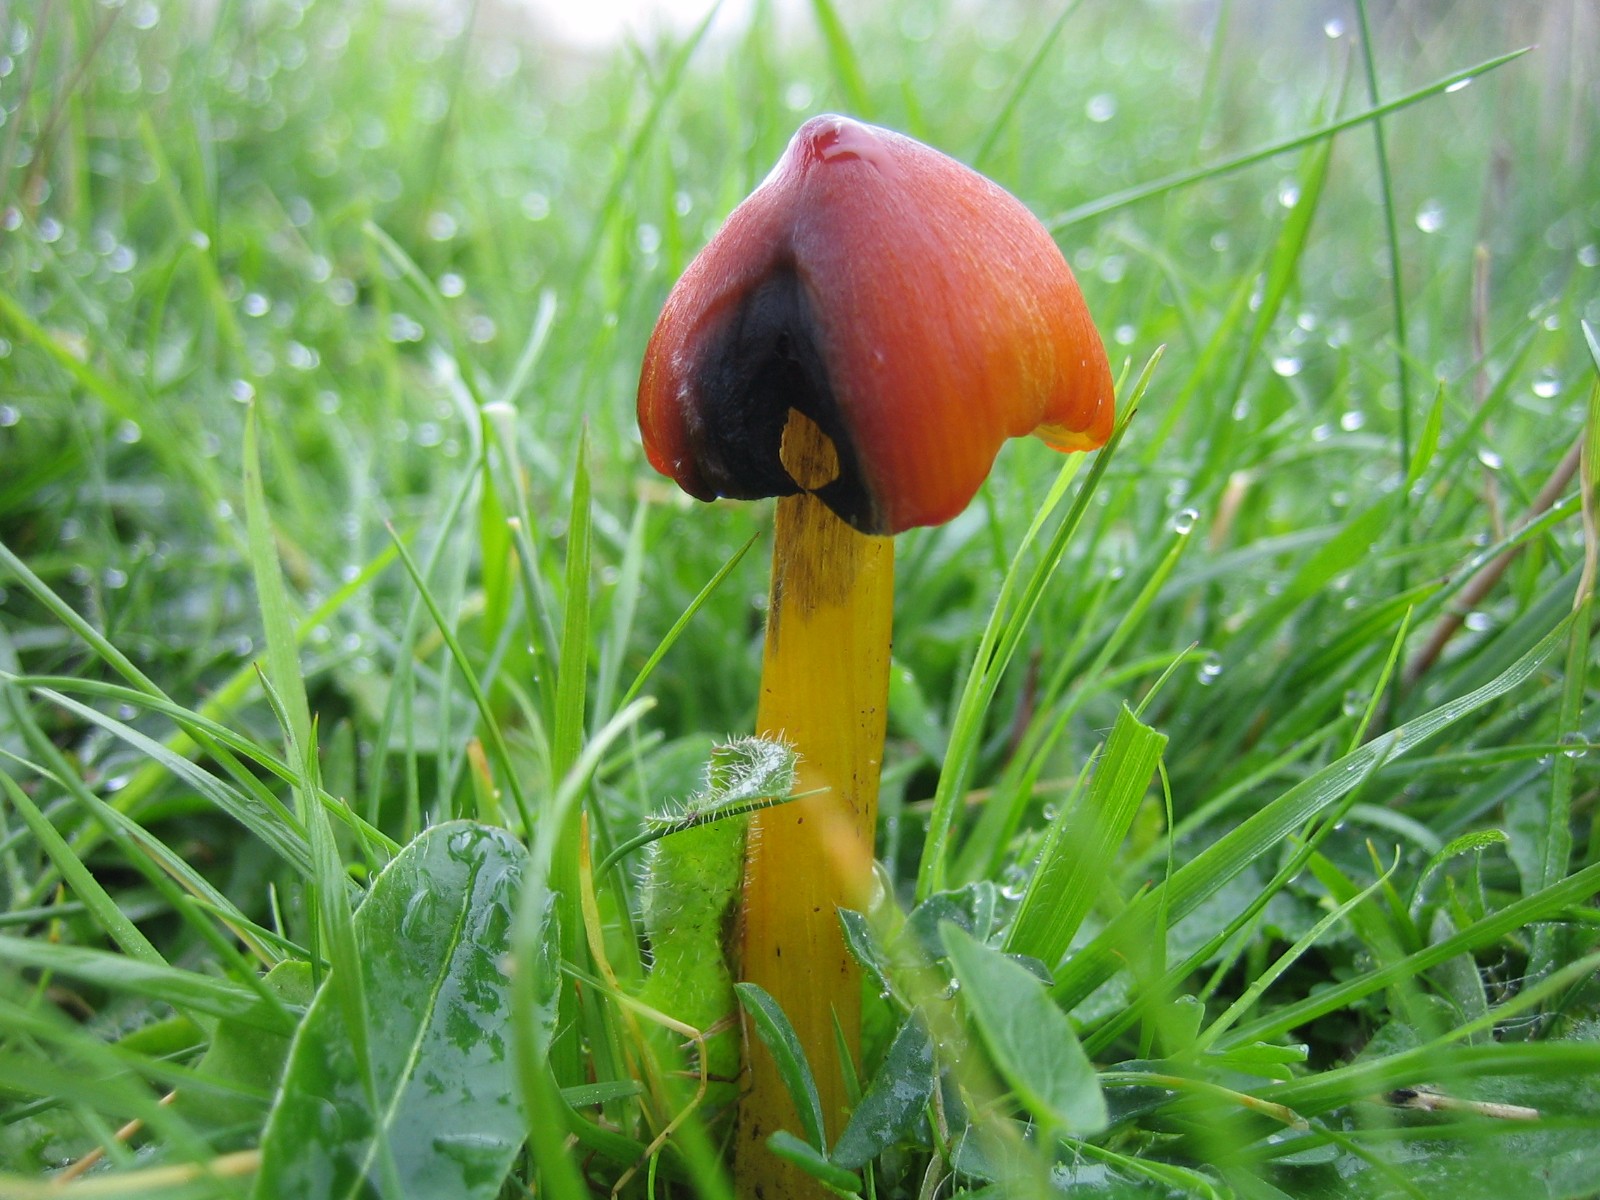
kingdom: Fungi
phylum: Basidiomycota
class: Agaricomycetes
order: Agaricales
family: Hygrophoraceae
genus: Hygrocybe
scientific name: Hygrocybe conica
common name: kegle-vokshat
